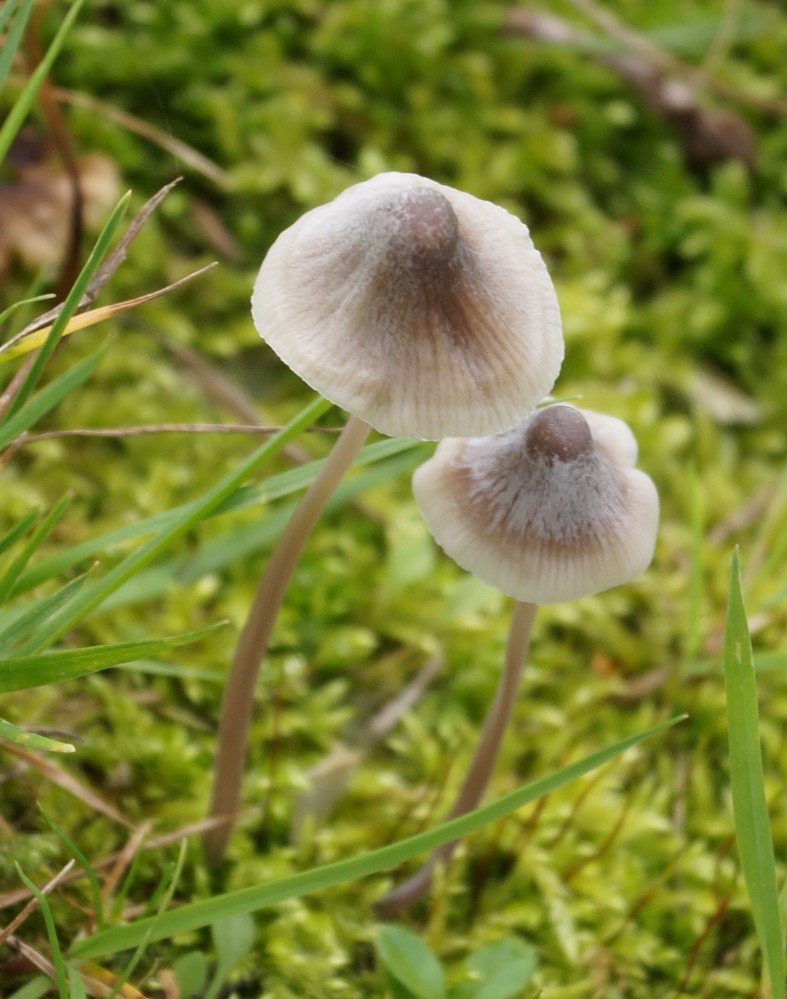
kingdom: Fungi
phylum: Basidiomycota
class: Agaricomycetes
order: Agaricales
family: Mycenaceae
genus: Mycena
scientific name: Mycena
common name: huesvamp
